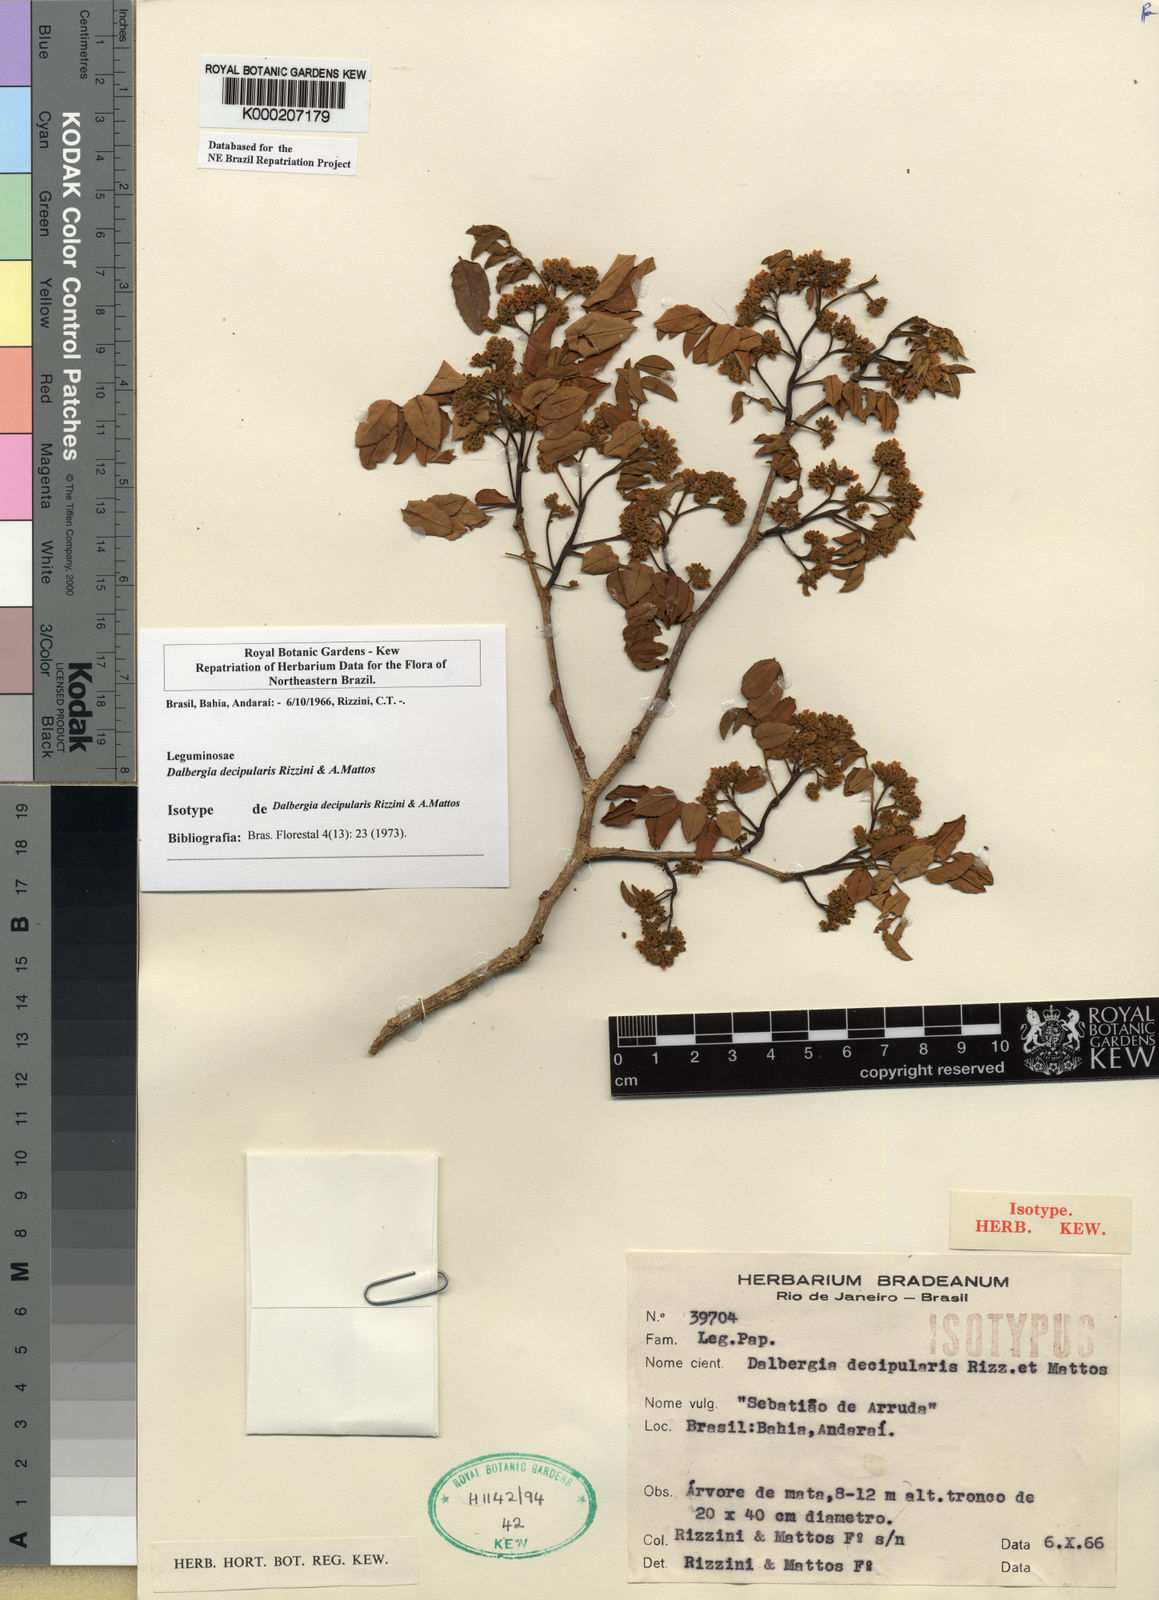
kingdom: Plantae
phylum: Tracheophyta
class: Magnoliopsida
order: Fabales
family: Fabaceae
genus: Dalbergia
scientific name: Dalbergia decipularis
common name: Brazilian tulipwood
